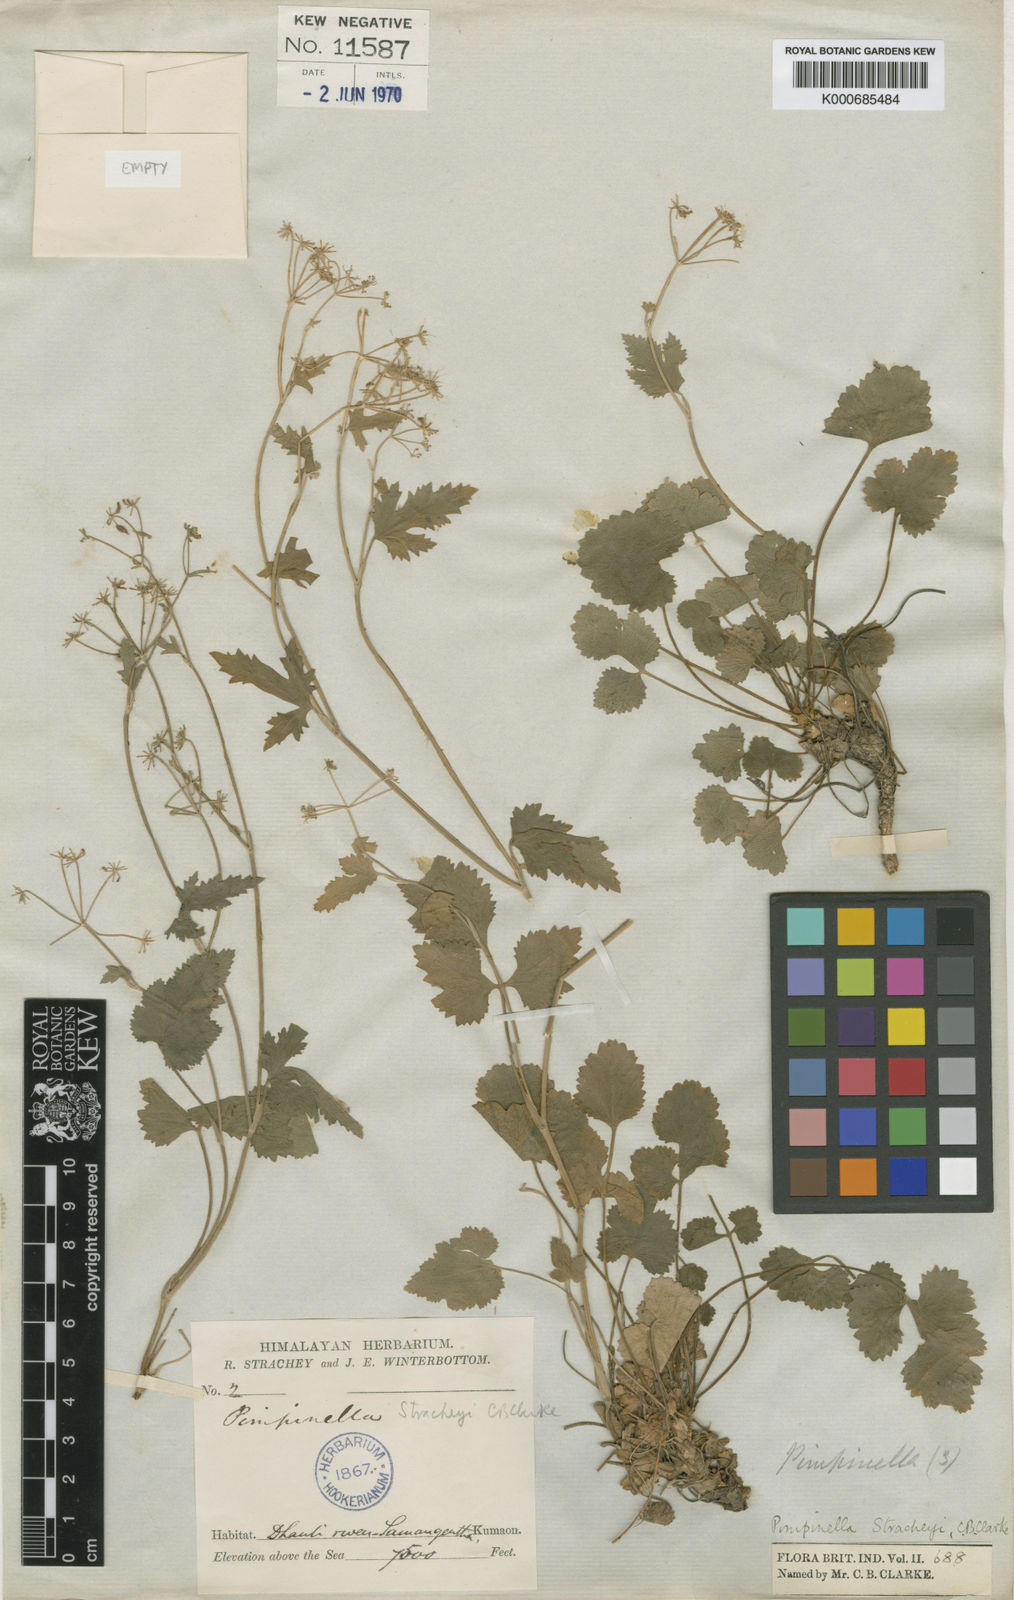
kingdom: Plantae
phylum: Tracheophyta
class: Magnoliopsida
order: Apiales
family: Apiaceae
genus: Pimpinella
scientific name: Pimpinella stracheyi
